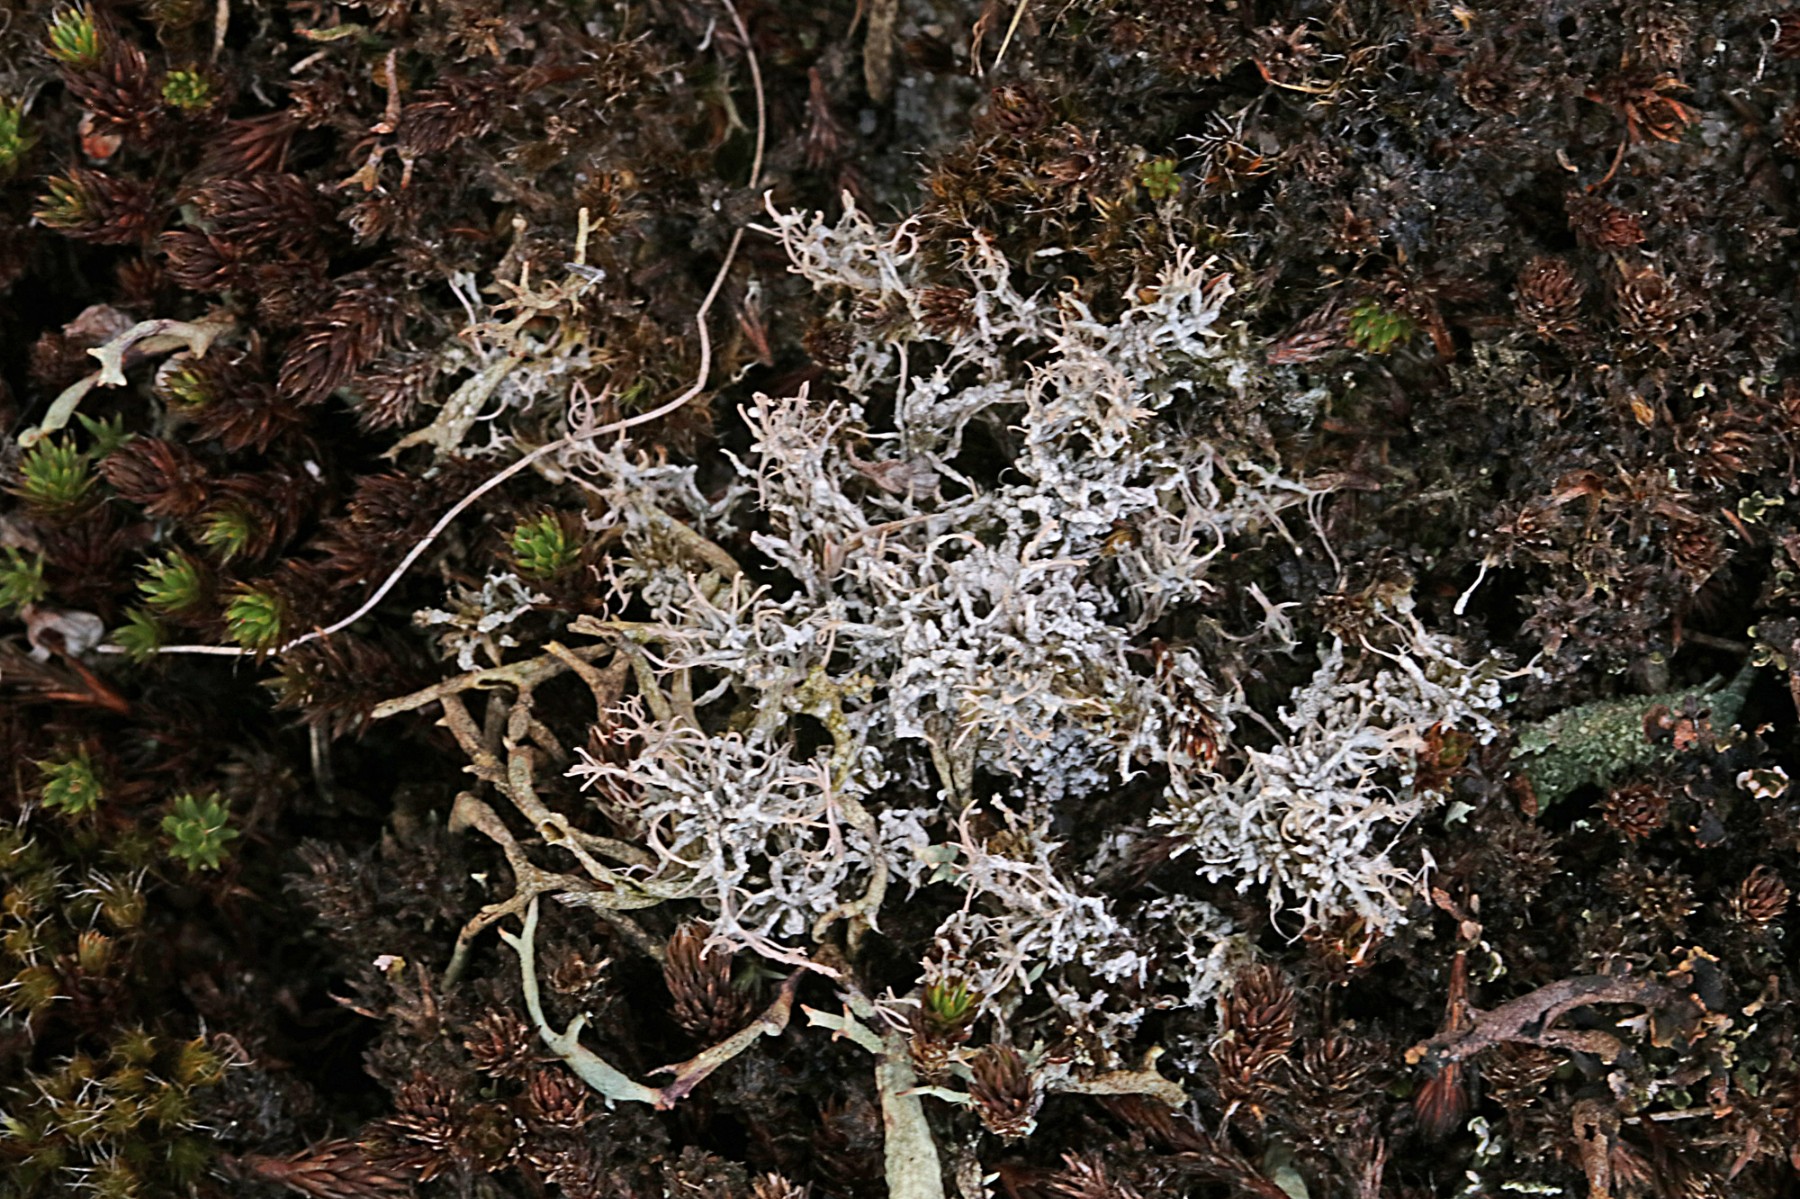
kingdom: Fungi
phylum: Ascomycota
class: Lecanoromycetes
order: Pertusariales
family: Ochrolechiaceae
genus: Ochrolechia
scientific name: Ochrolechia frigida
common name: fjeld-blegskivelav
